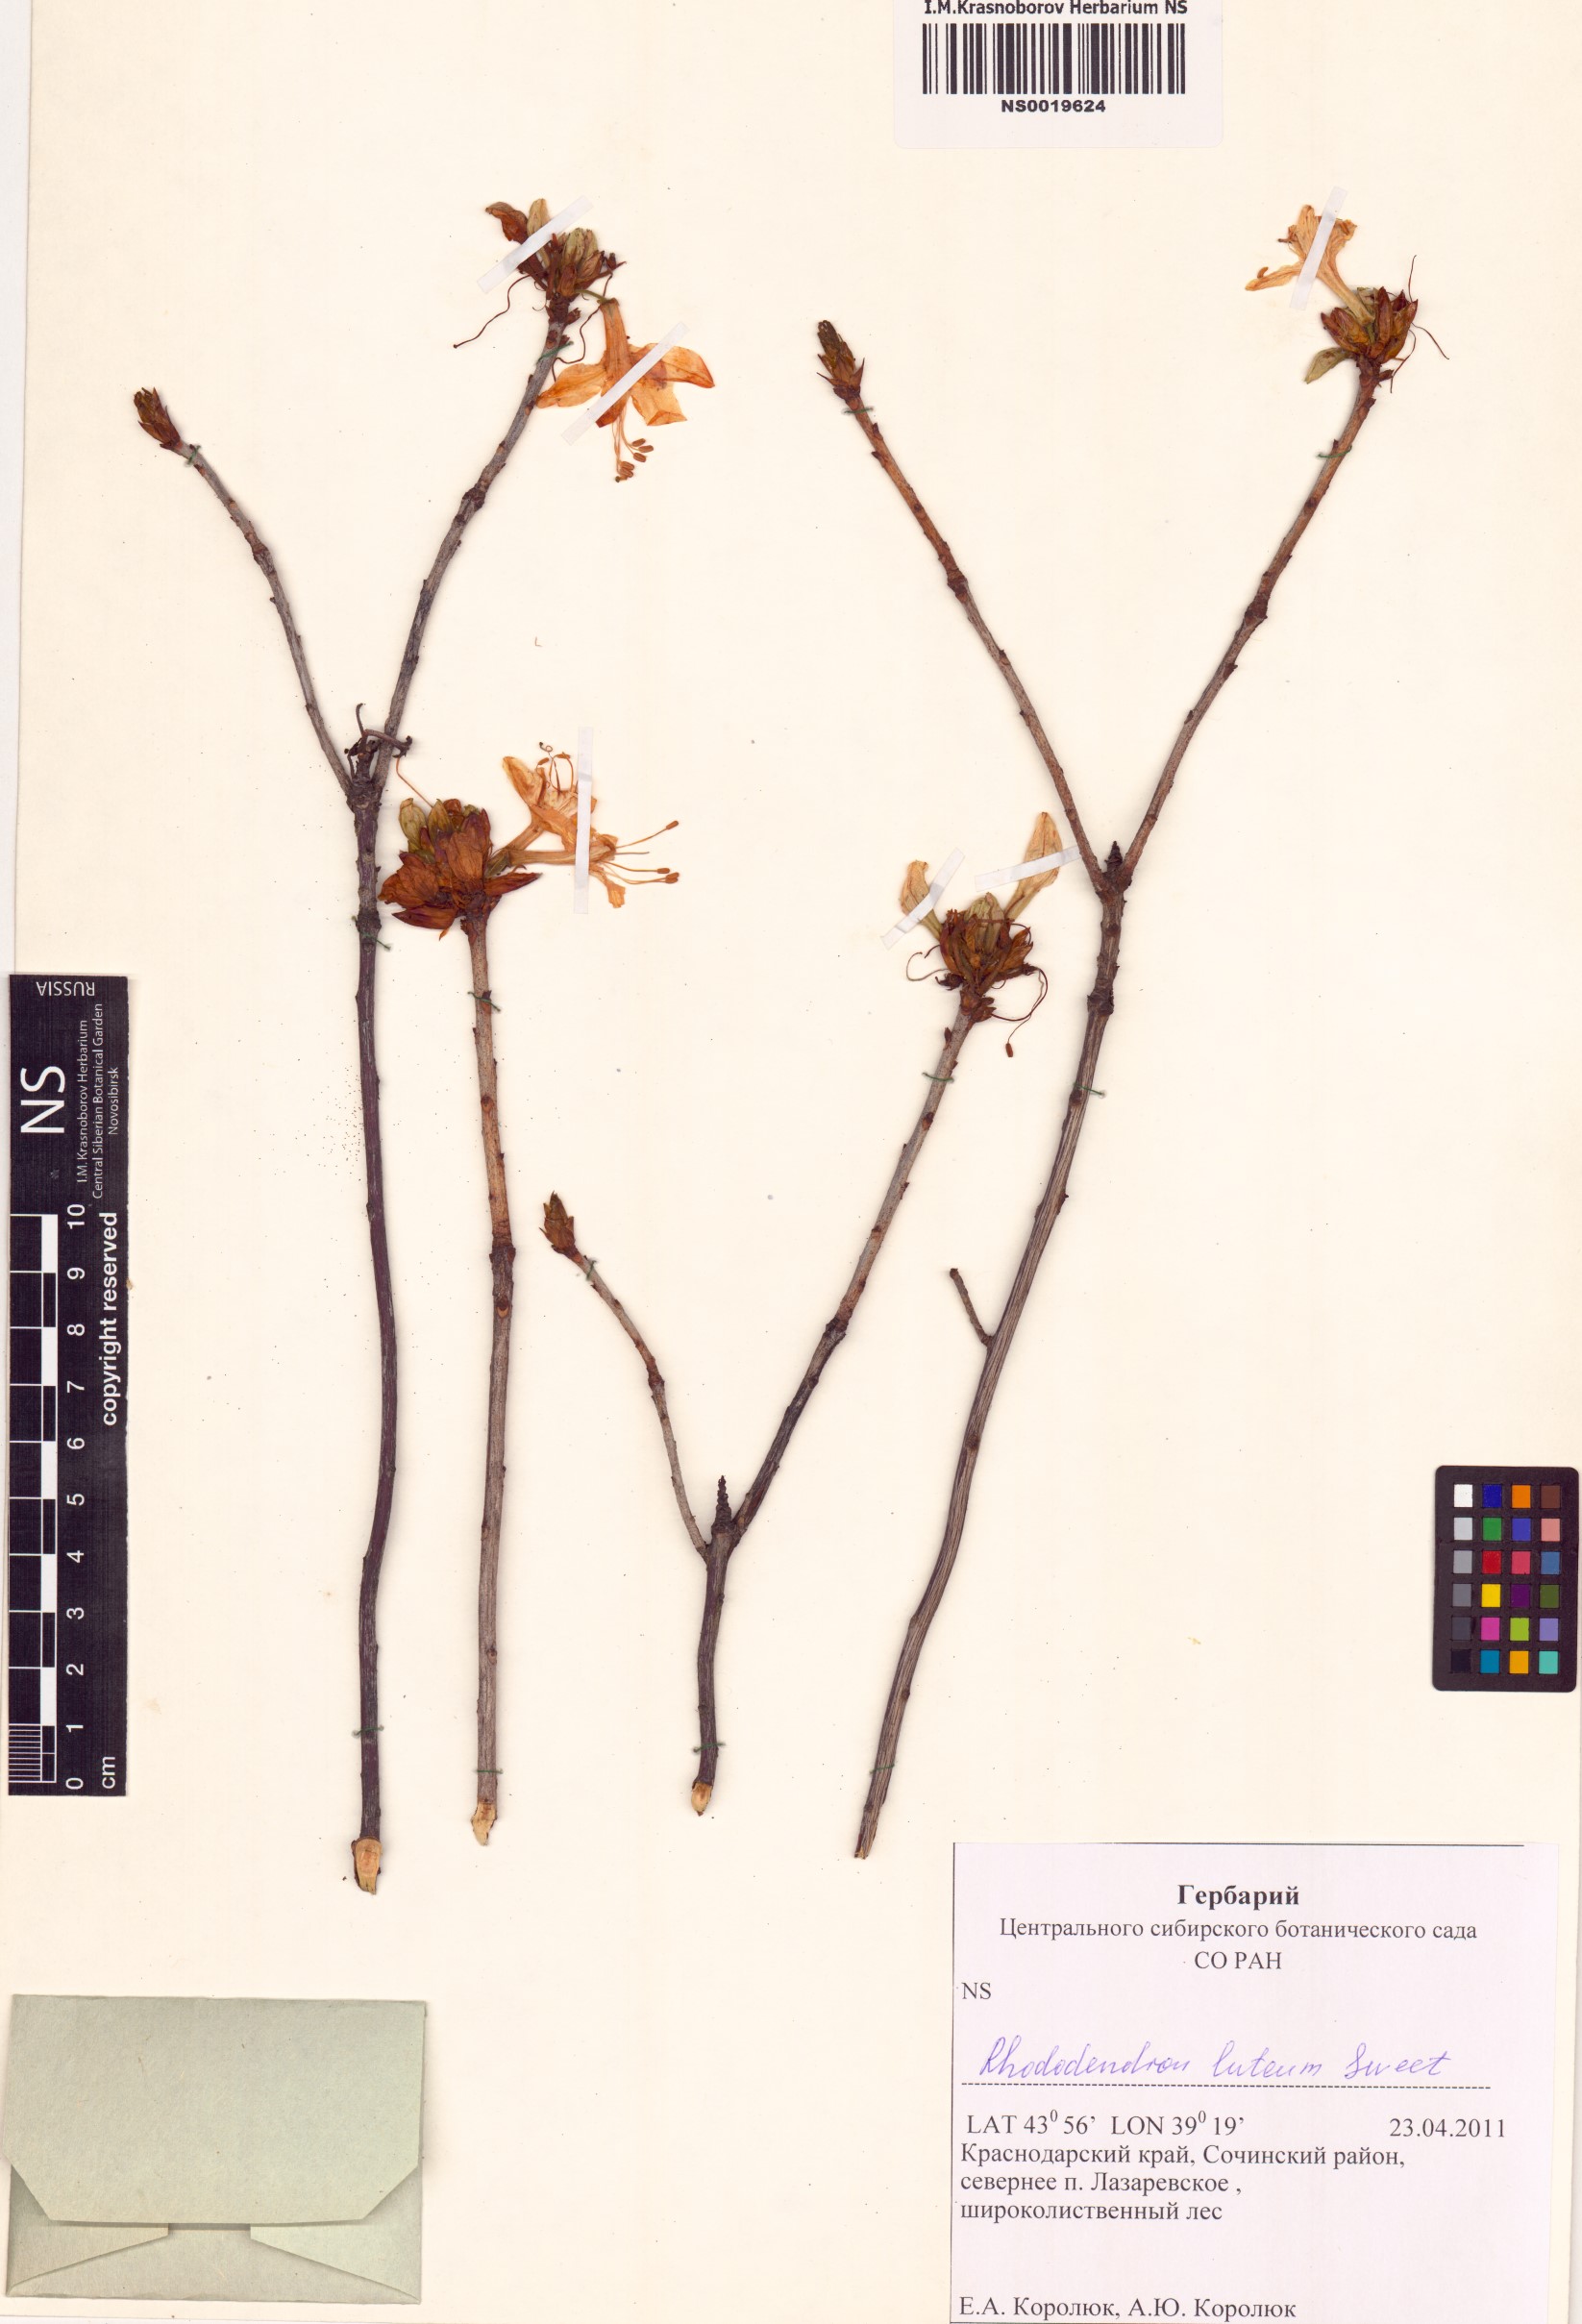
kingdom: Plantae
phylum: Tracheophyta
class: Magnoliopsida
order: Ericales
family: Ericaceae
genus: Rhododendron
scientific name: Rhododendron luteum
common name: Yellow azalea
